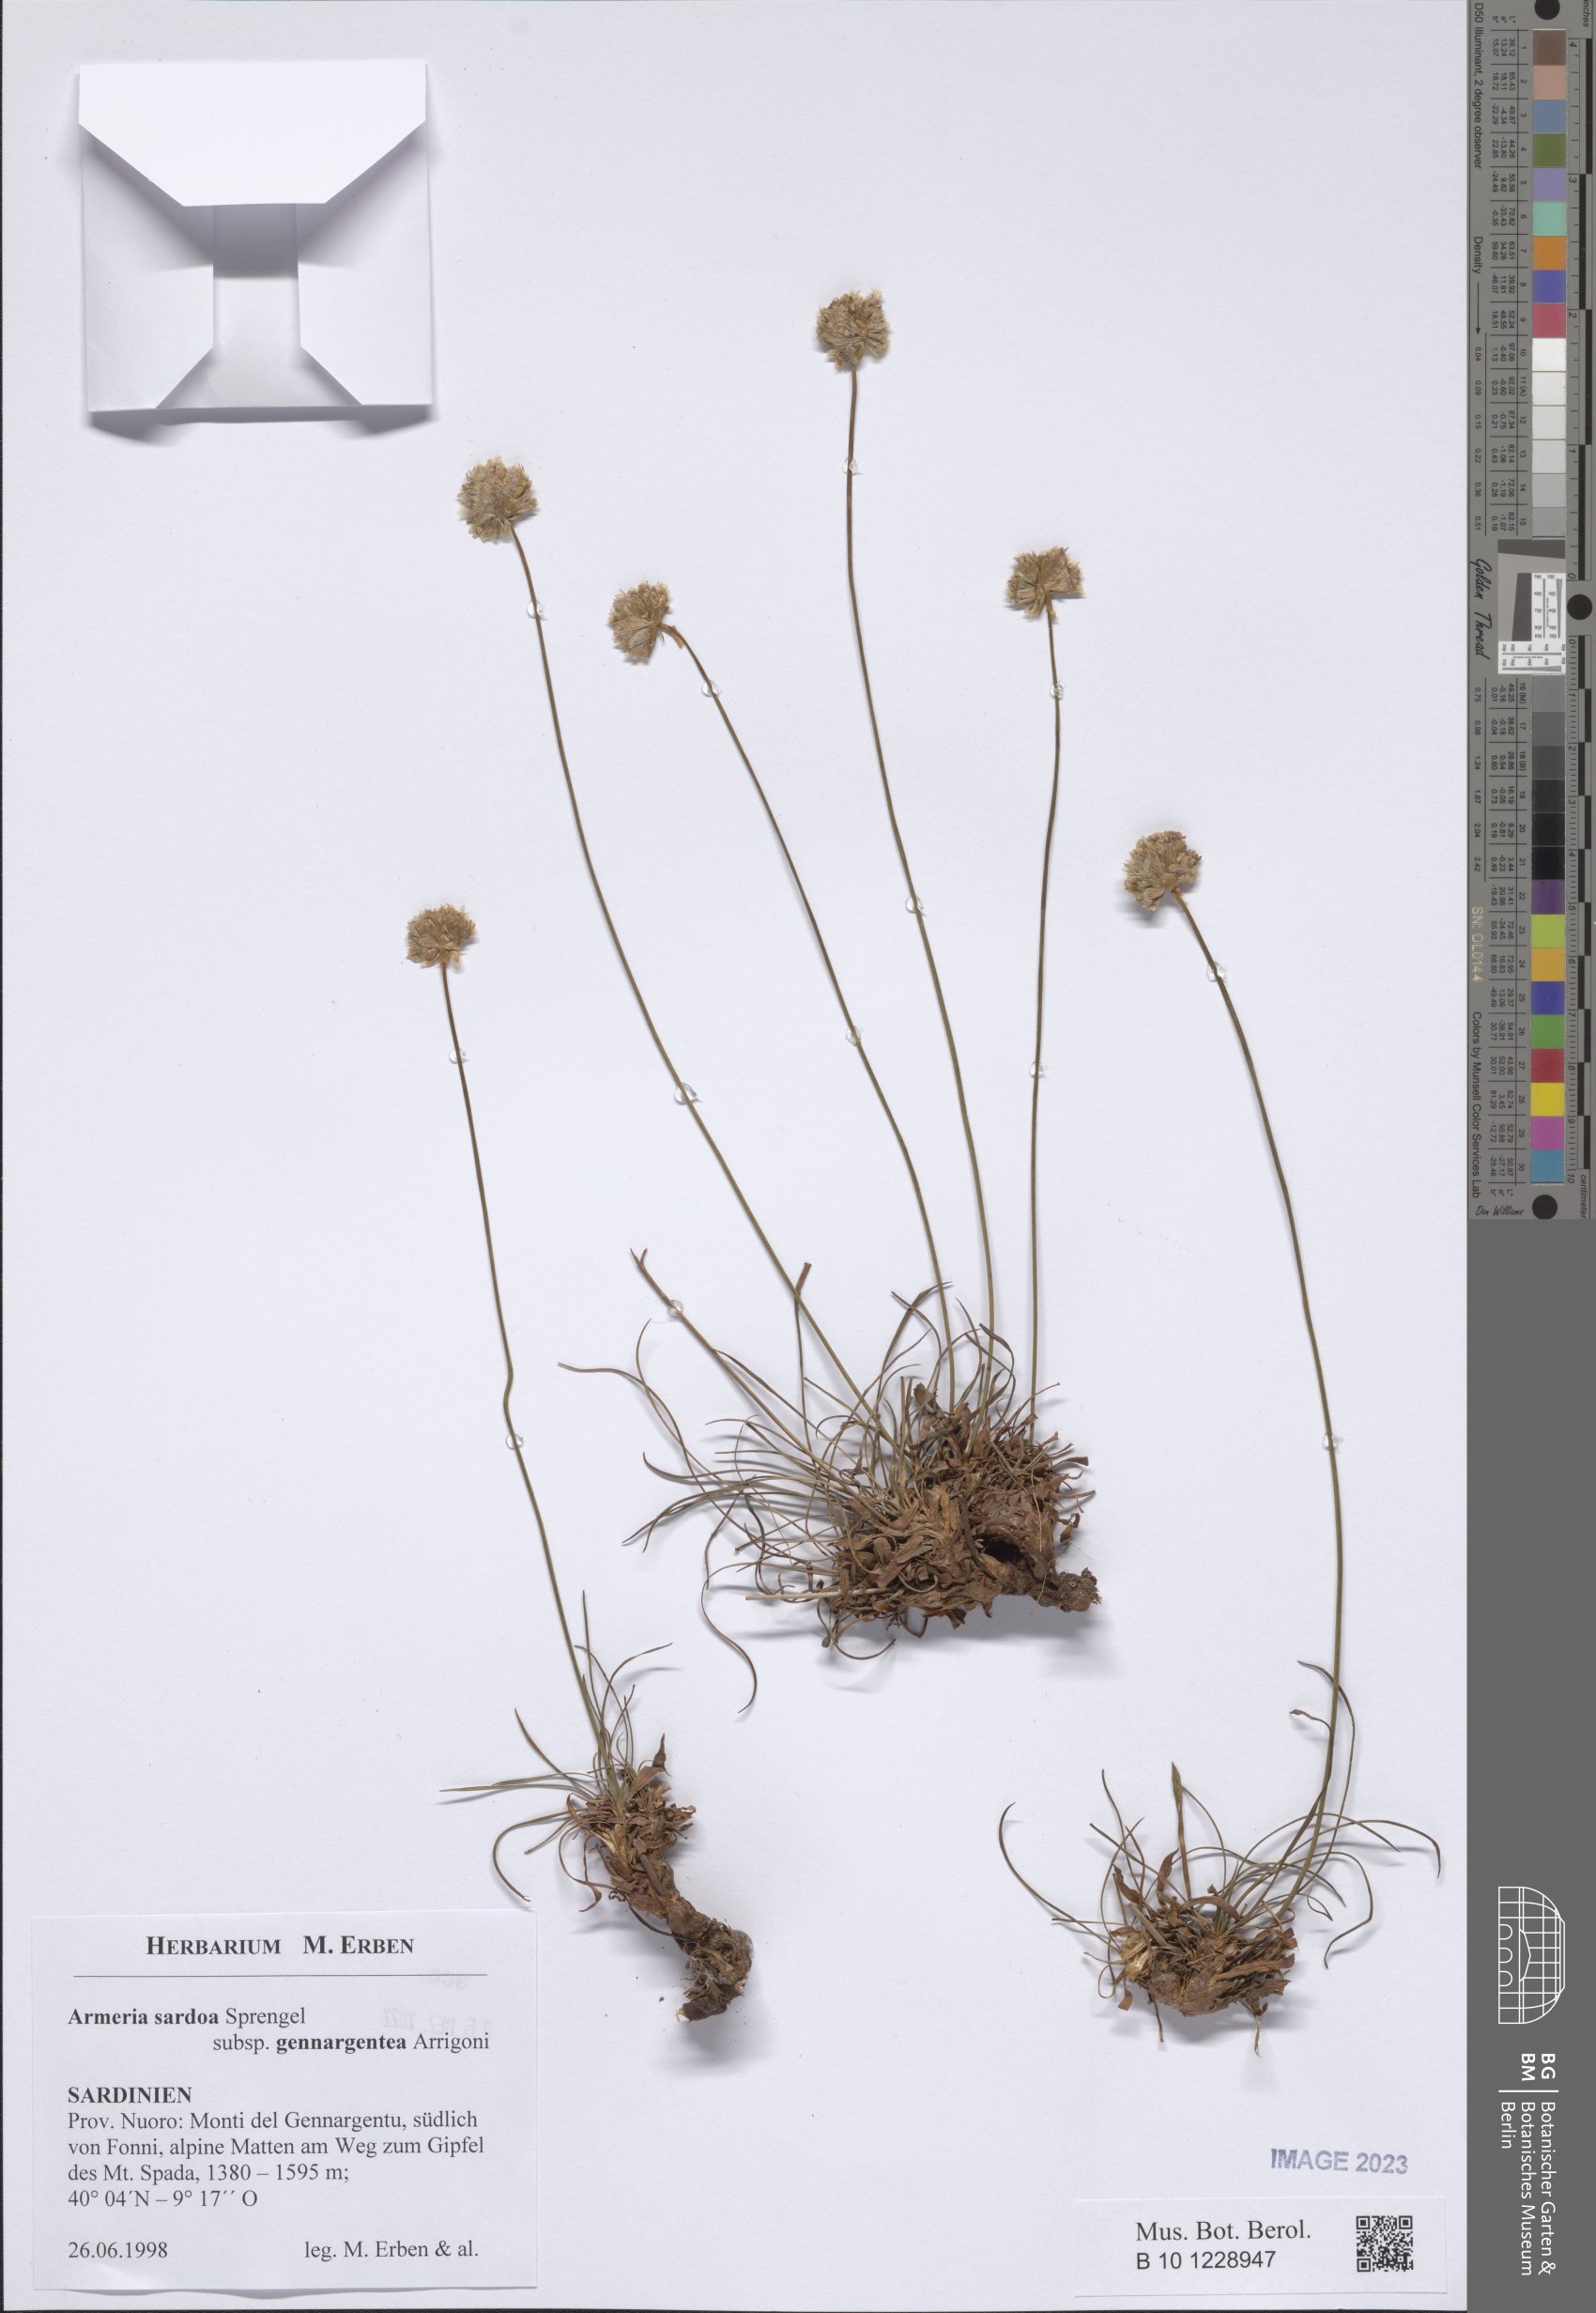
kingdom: Plantae
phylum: Tracheophyta
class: Magnoliopsida
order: Caryophyllales
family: Plumbaginaceae
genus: Armeria
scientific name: Armeria sardoa
